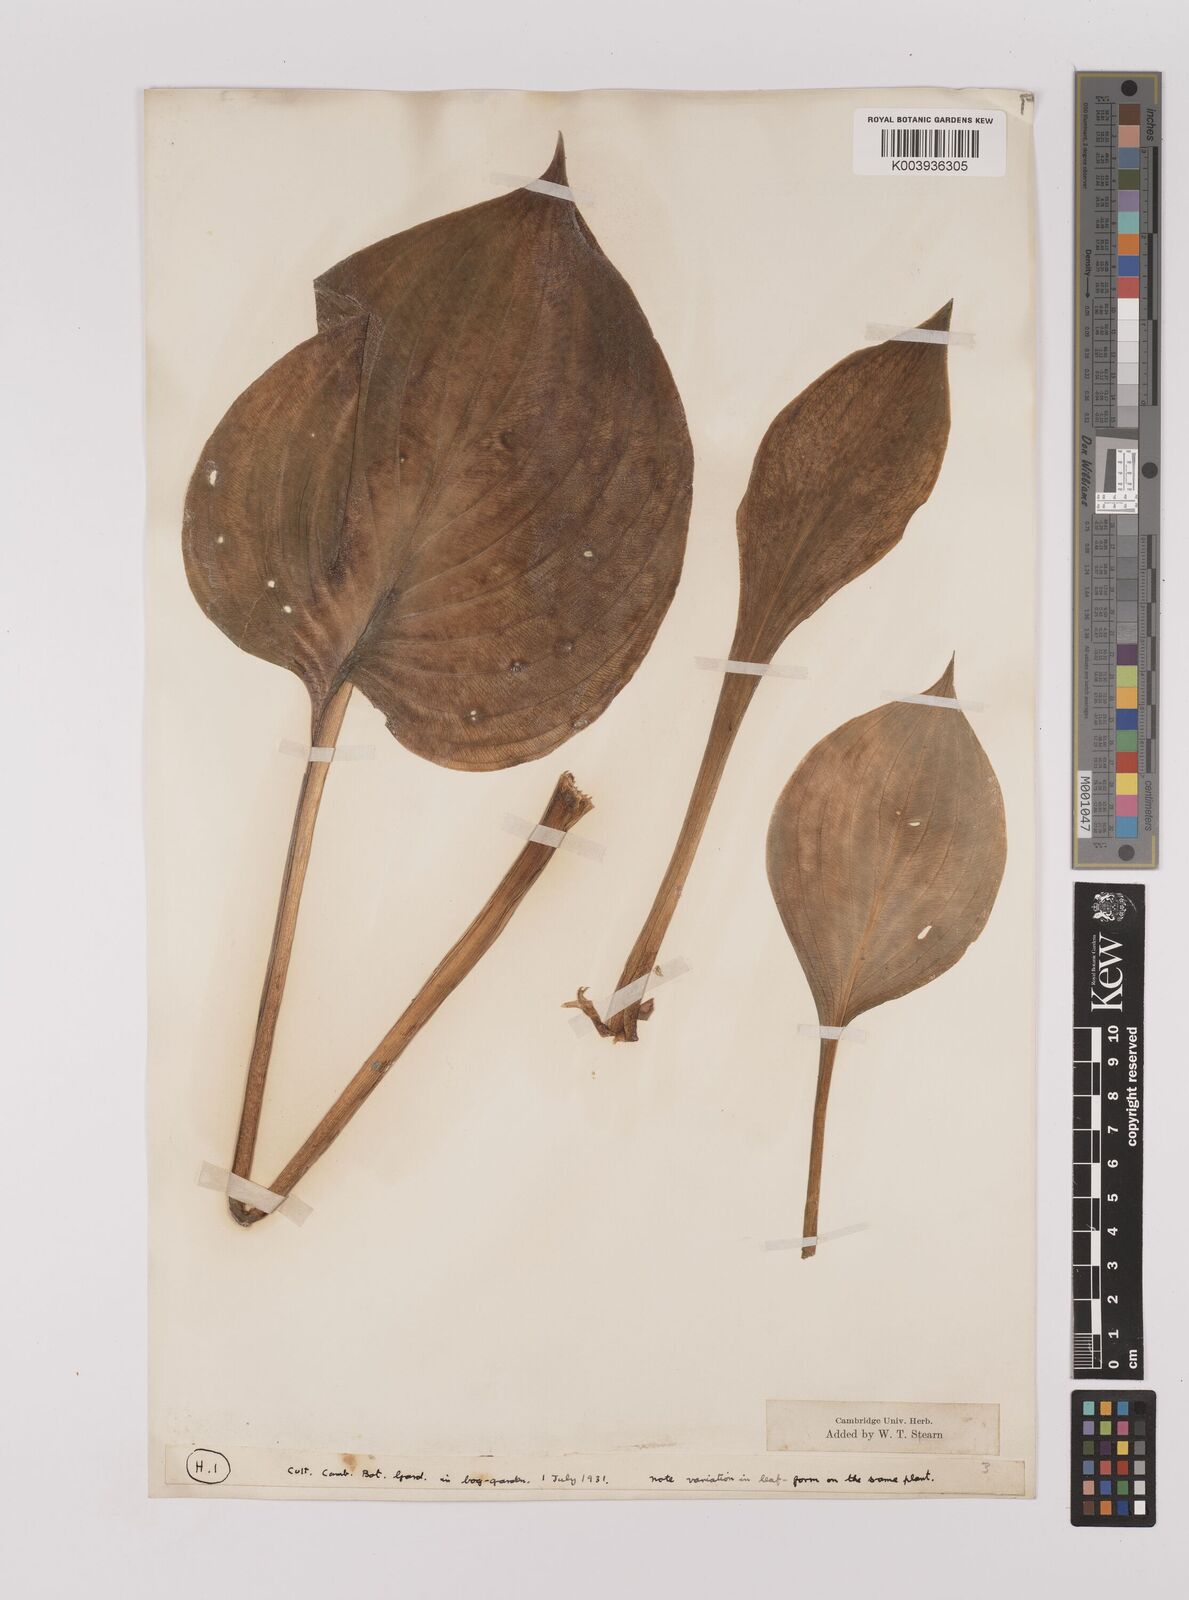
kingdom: Plantae
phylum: Tracheophyta
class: Liliopsida
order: Asparagales
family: Asparagaceae
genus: Hosta
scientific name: Hosta ventricosa
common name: Blue plantain-lily
